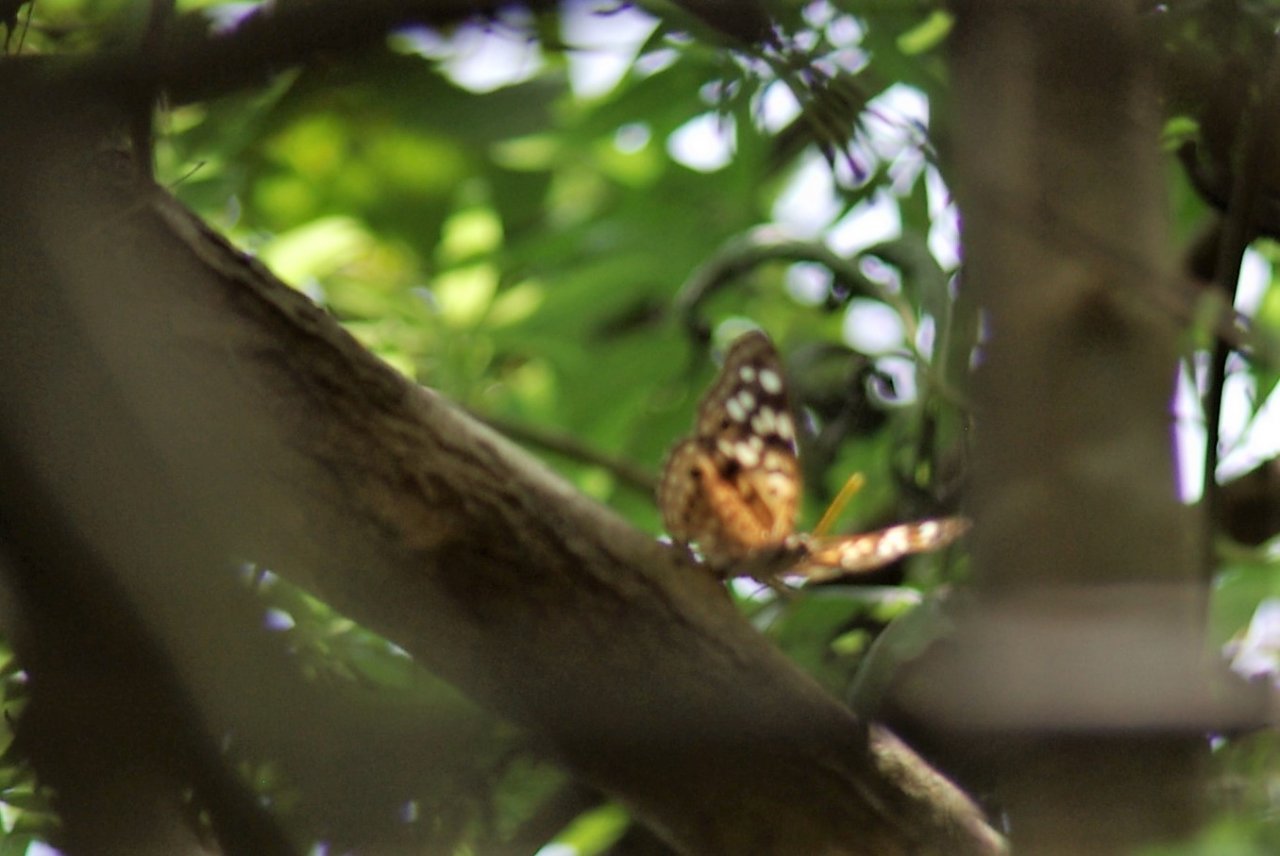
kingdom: Animalia
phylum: Arthropoda
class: Insecta
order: Lepidoptera
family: Nymphalidae
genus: Asterocampa
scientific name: Asterocampa celtis
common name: Hackberry Emperor
